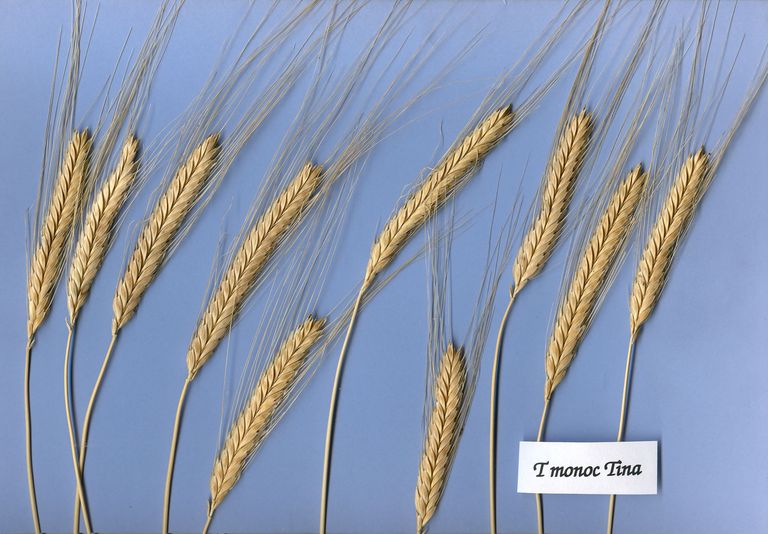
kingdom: Plantae
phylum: Tracheophyta
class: Liliopsida
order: Poales
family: Poaceae
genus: Triticum
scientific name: Triticum monococcum
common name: Einkorn
